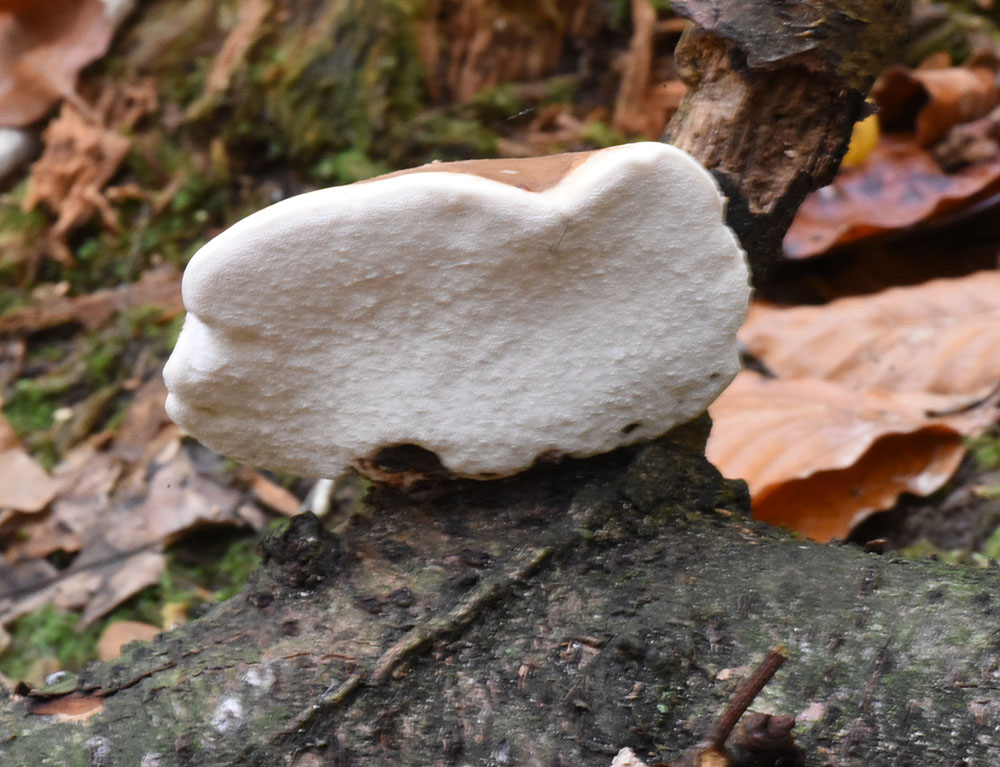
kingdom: Fungi
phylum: Basidiomycota
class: Agaricomycetes
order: Polyporales
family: Fomitopsidaceae
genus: Fomitopsis
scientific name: Fomitopsis betulina
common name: Birch polypore
